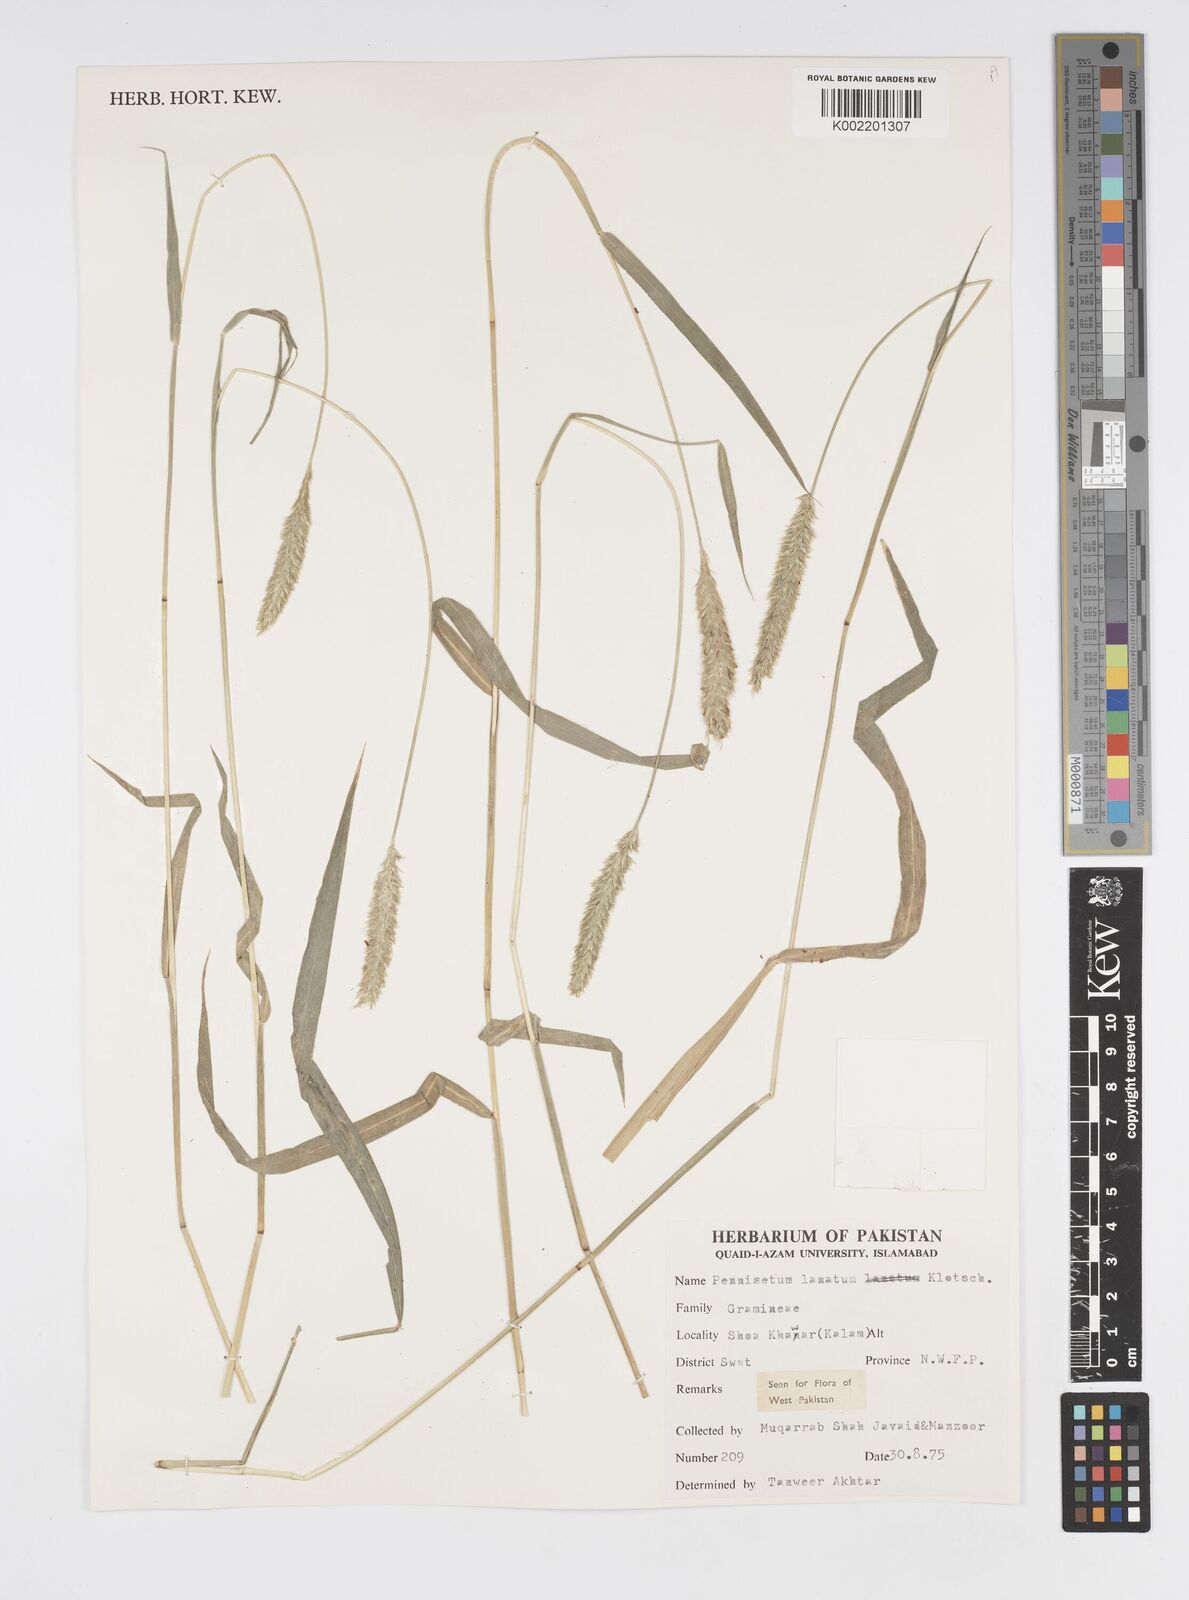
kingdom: Plantae
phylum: Tracheophyta
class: Liliopsida
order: Poales
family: Poaceae
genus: Cenchrus
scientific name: Cenchrus lanatus
